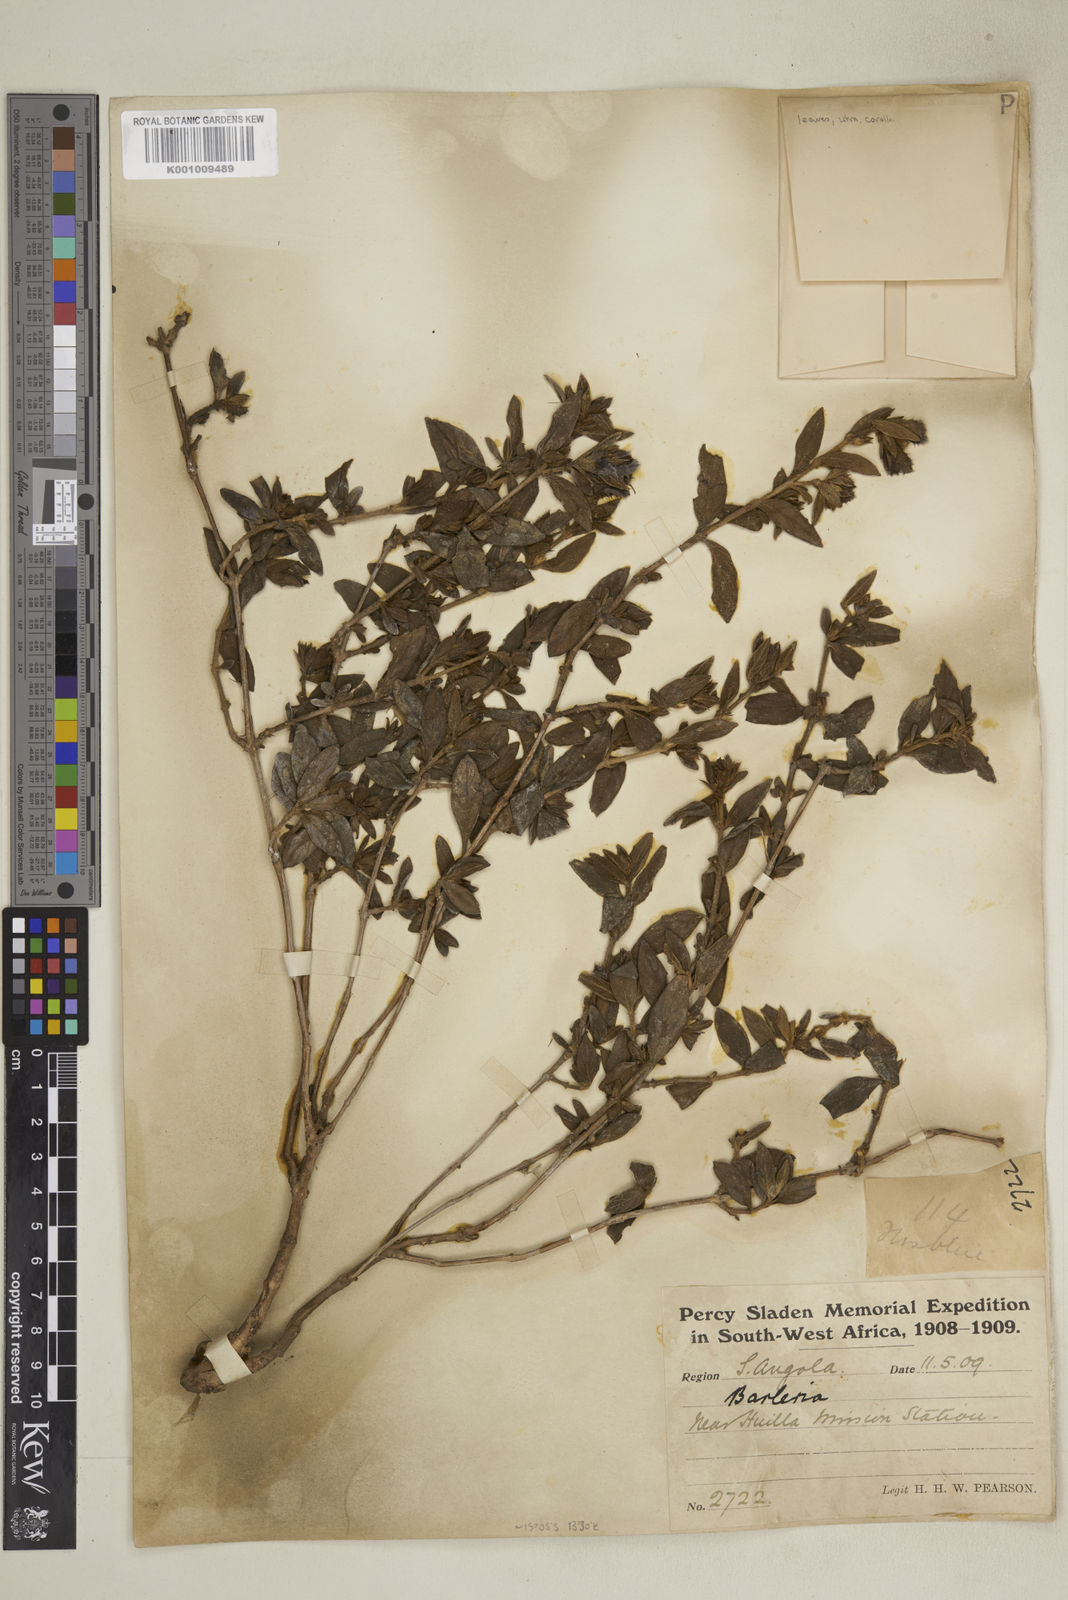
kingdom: Plantae
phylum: Tracheophyta
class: Magnoliopsida
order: Lamiales
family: Acanthaceae
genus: Barleria
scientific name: Barleria
